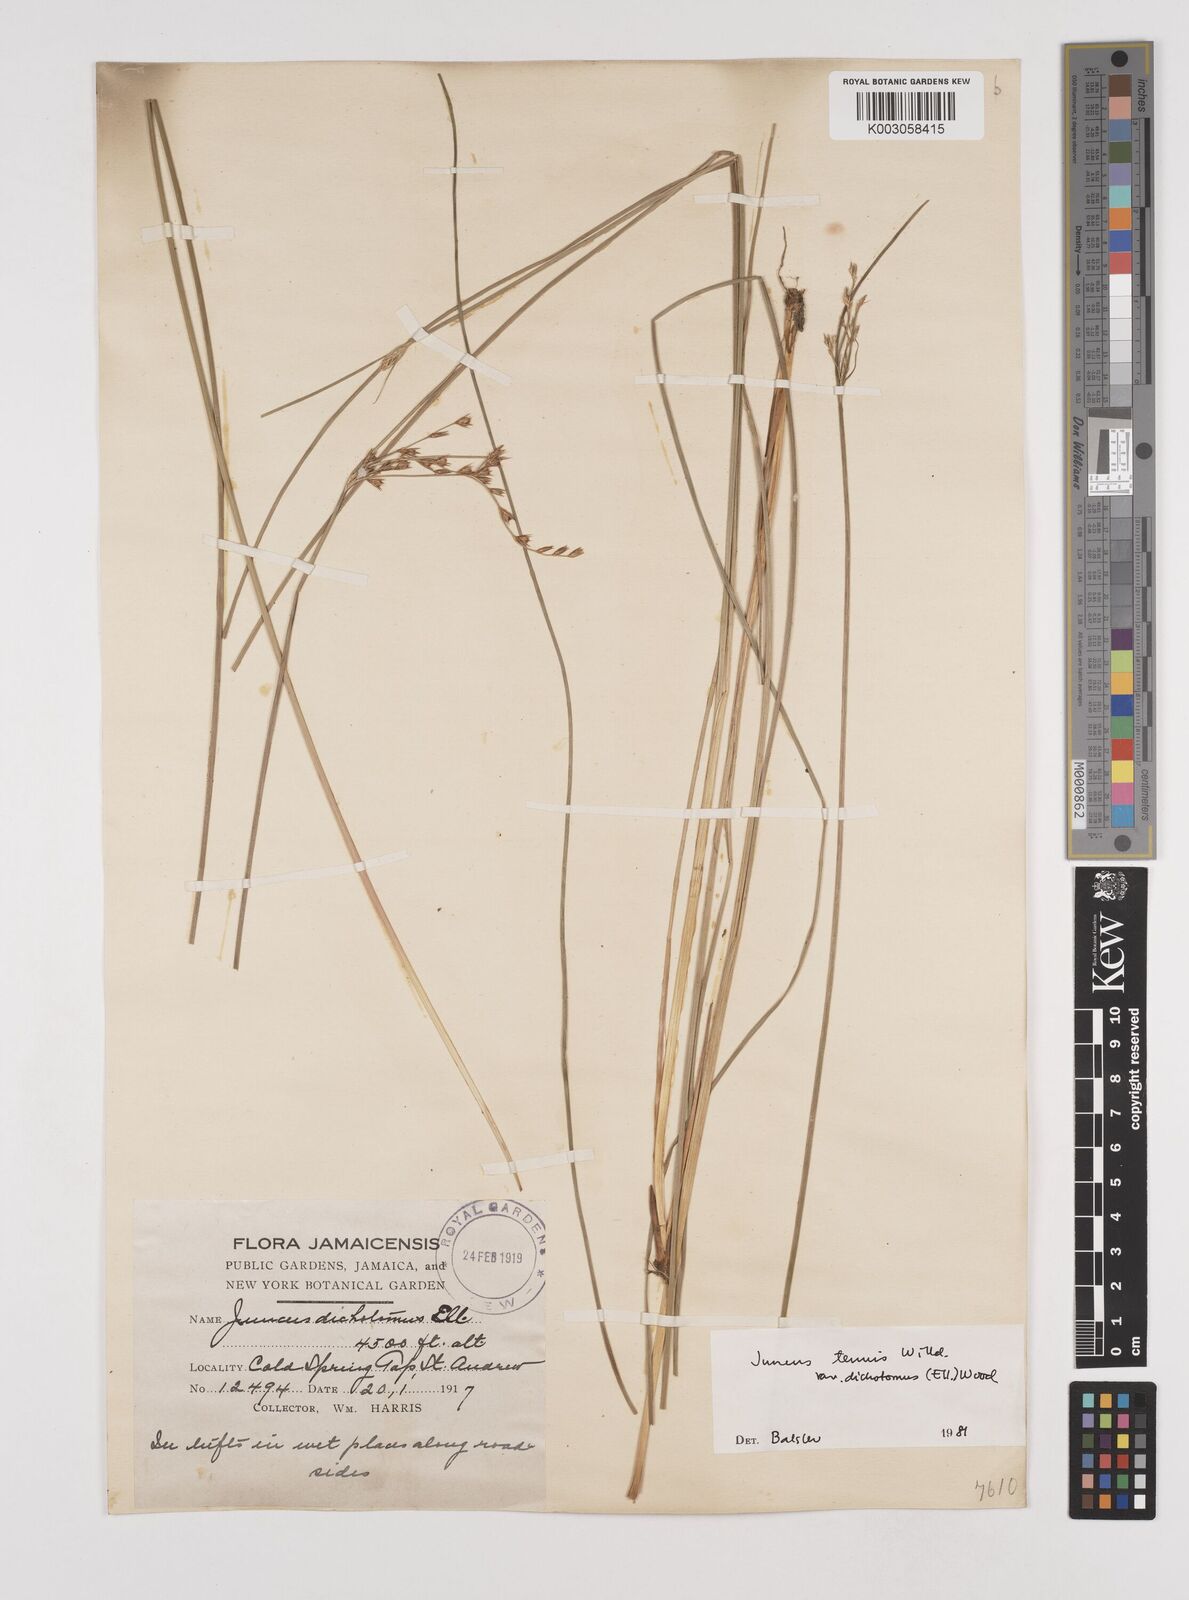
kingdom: Plantae
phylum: Tracheophyta
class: Liliopsida
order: Poales
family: Juncaceae
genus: Juncus
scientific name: Juncus dichotomus
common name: Forked rush
